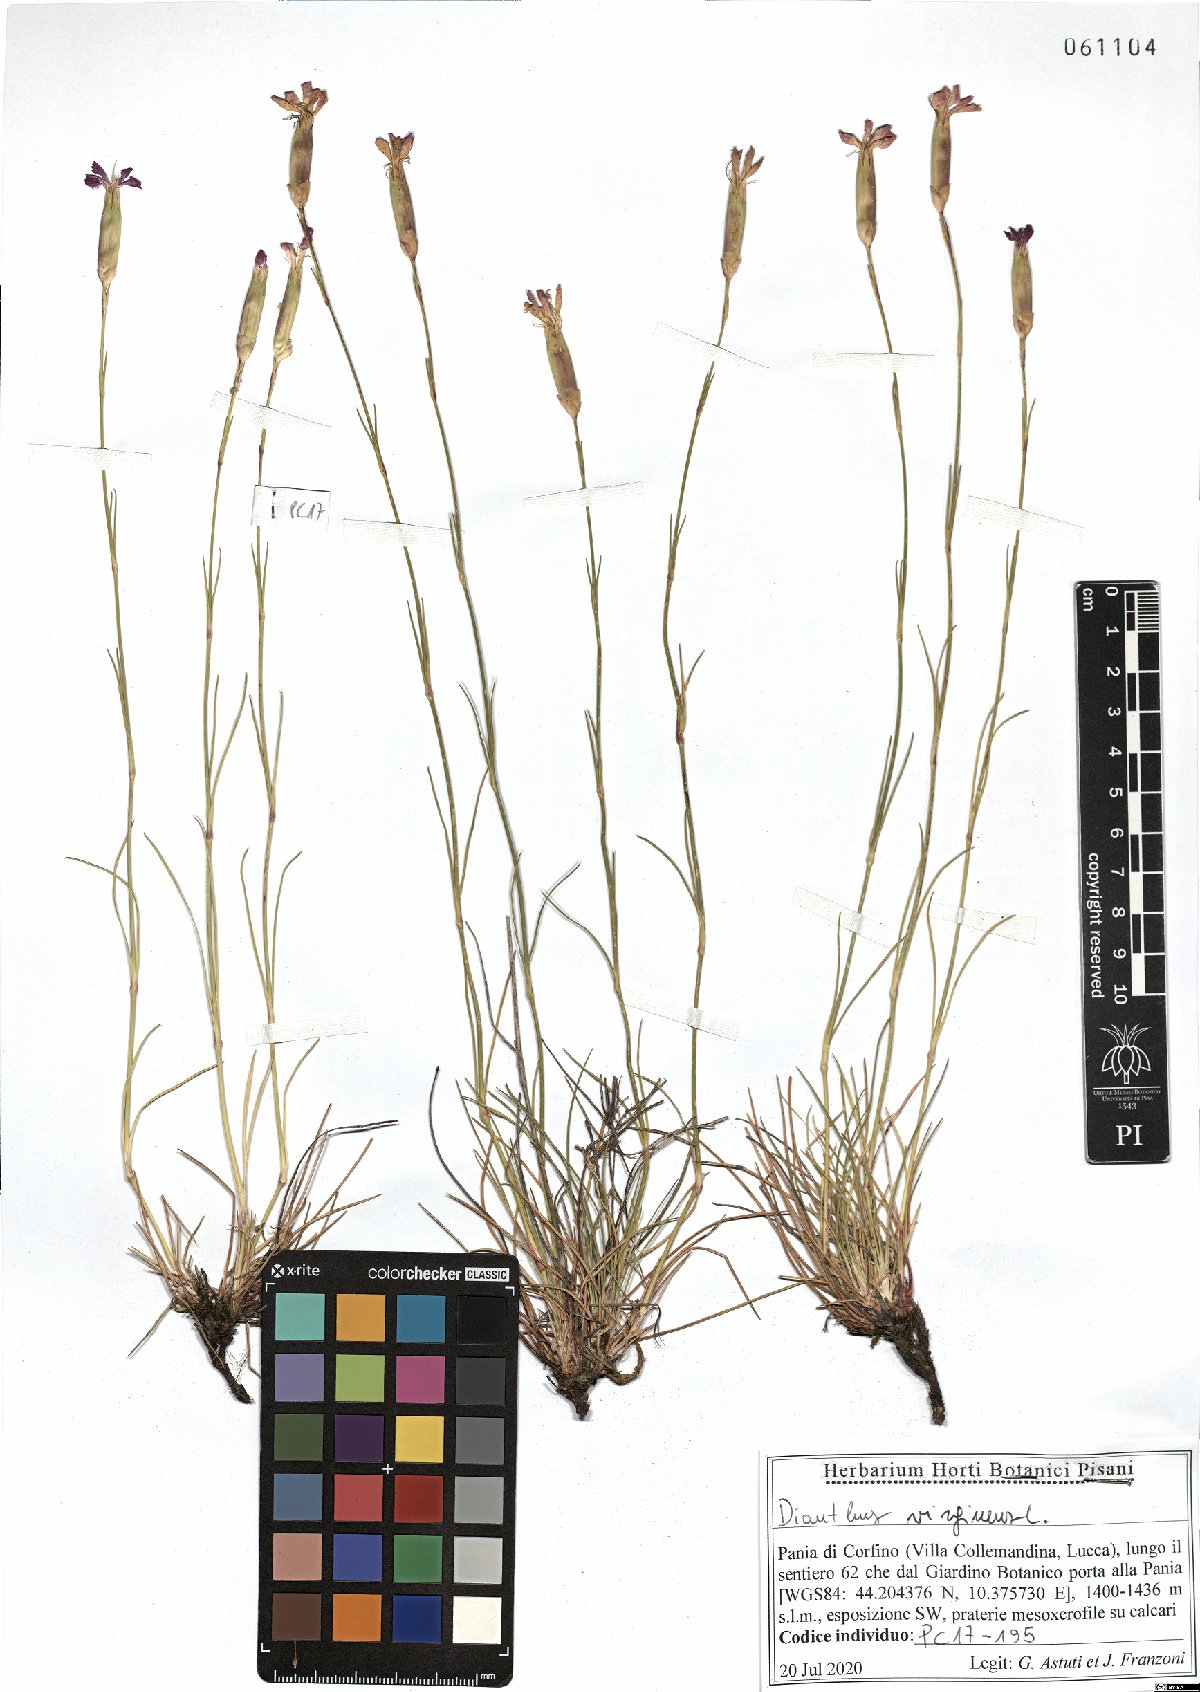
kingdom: Plantae
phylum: Tracheophyta
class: Magnoliopsida
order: Caryophyllales
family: Caryophyllaceae
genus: Dianthus
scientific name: Dianthus virgineus
